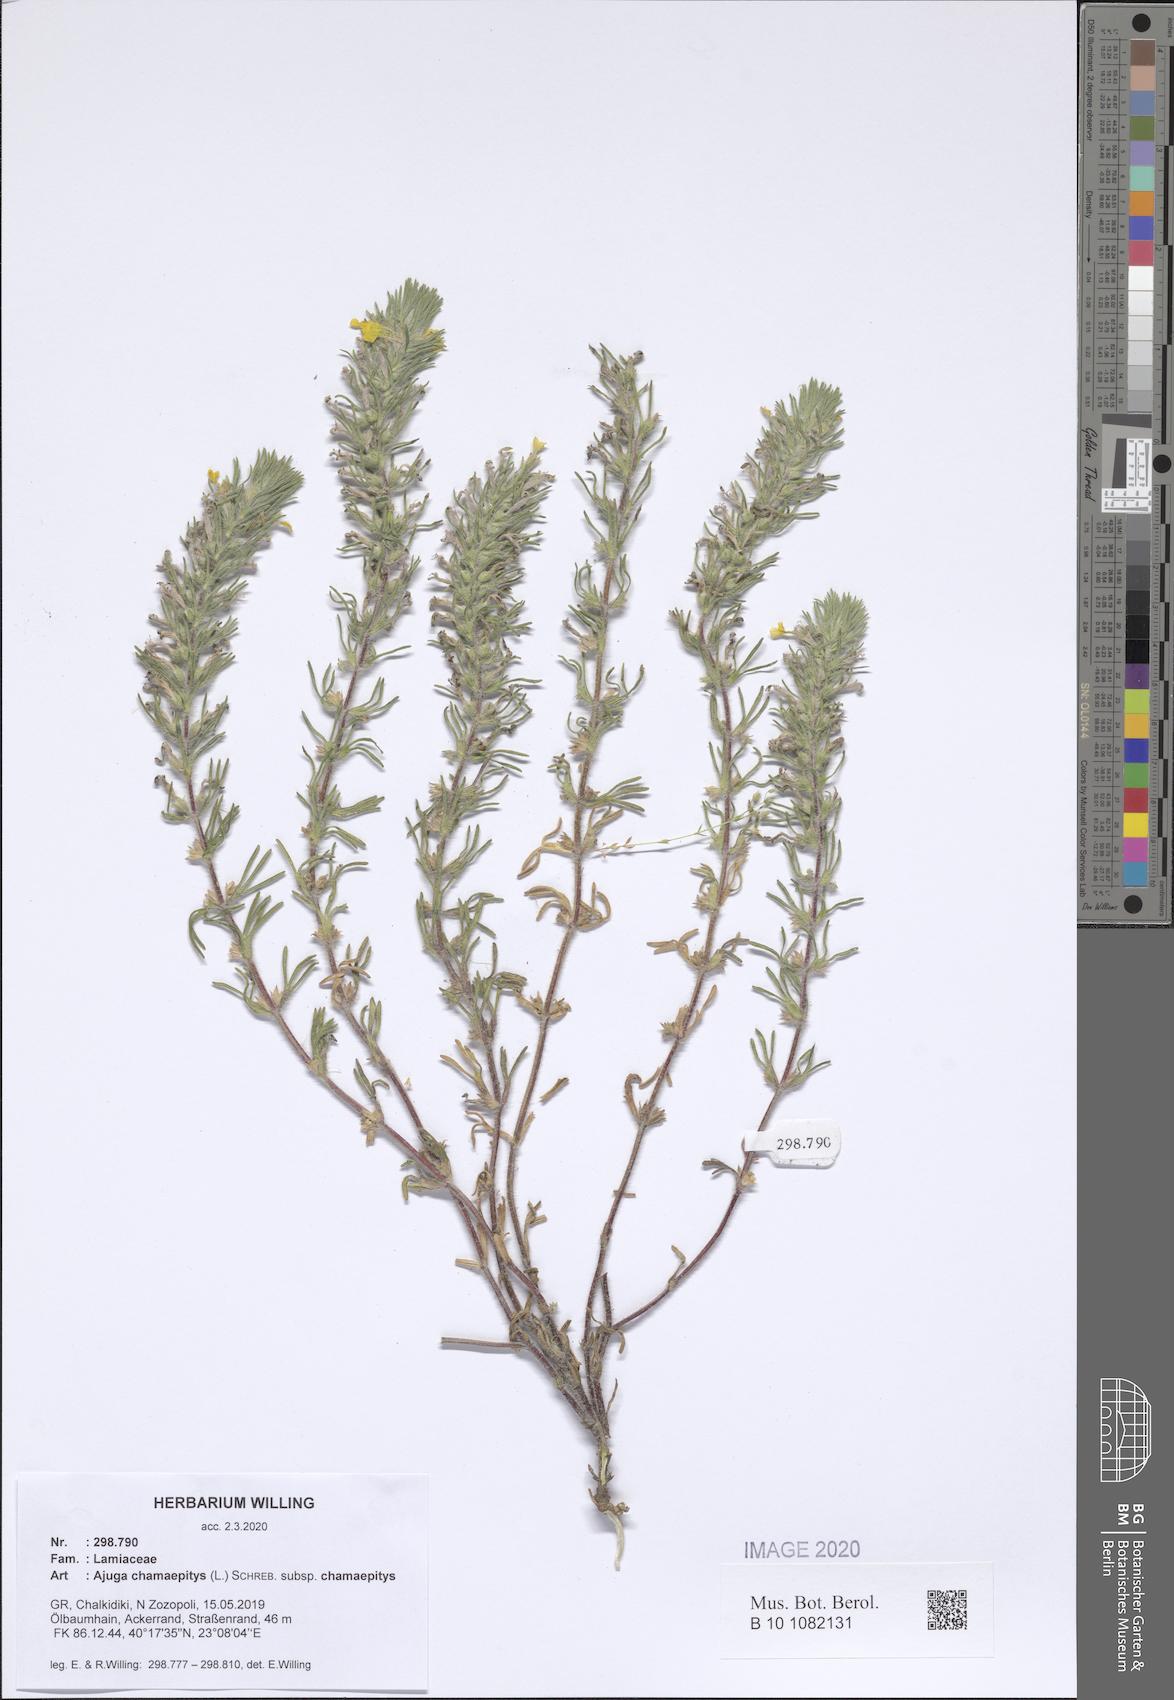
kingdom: Plantae
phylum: Tracheophyta
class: Magnoliopsida
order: Lamiales
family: Lamiaceae
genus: Ajuga
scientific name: Ajuga chamaepitys
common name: Ground-pine
